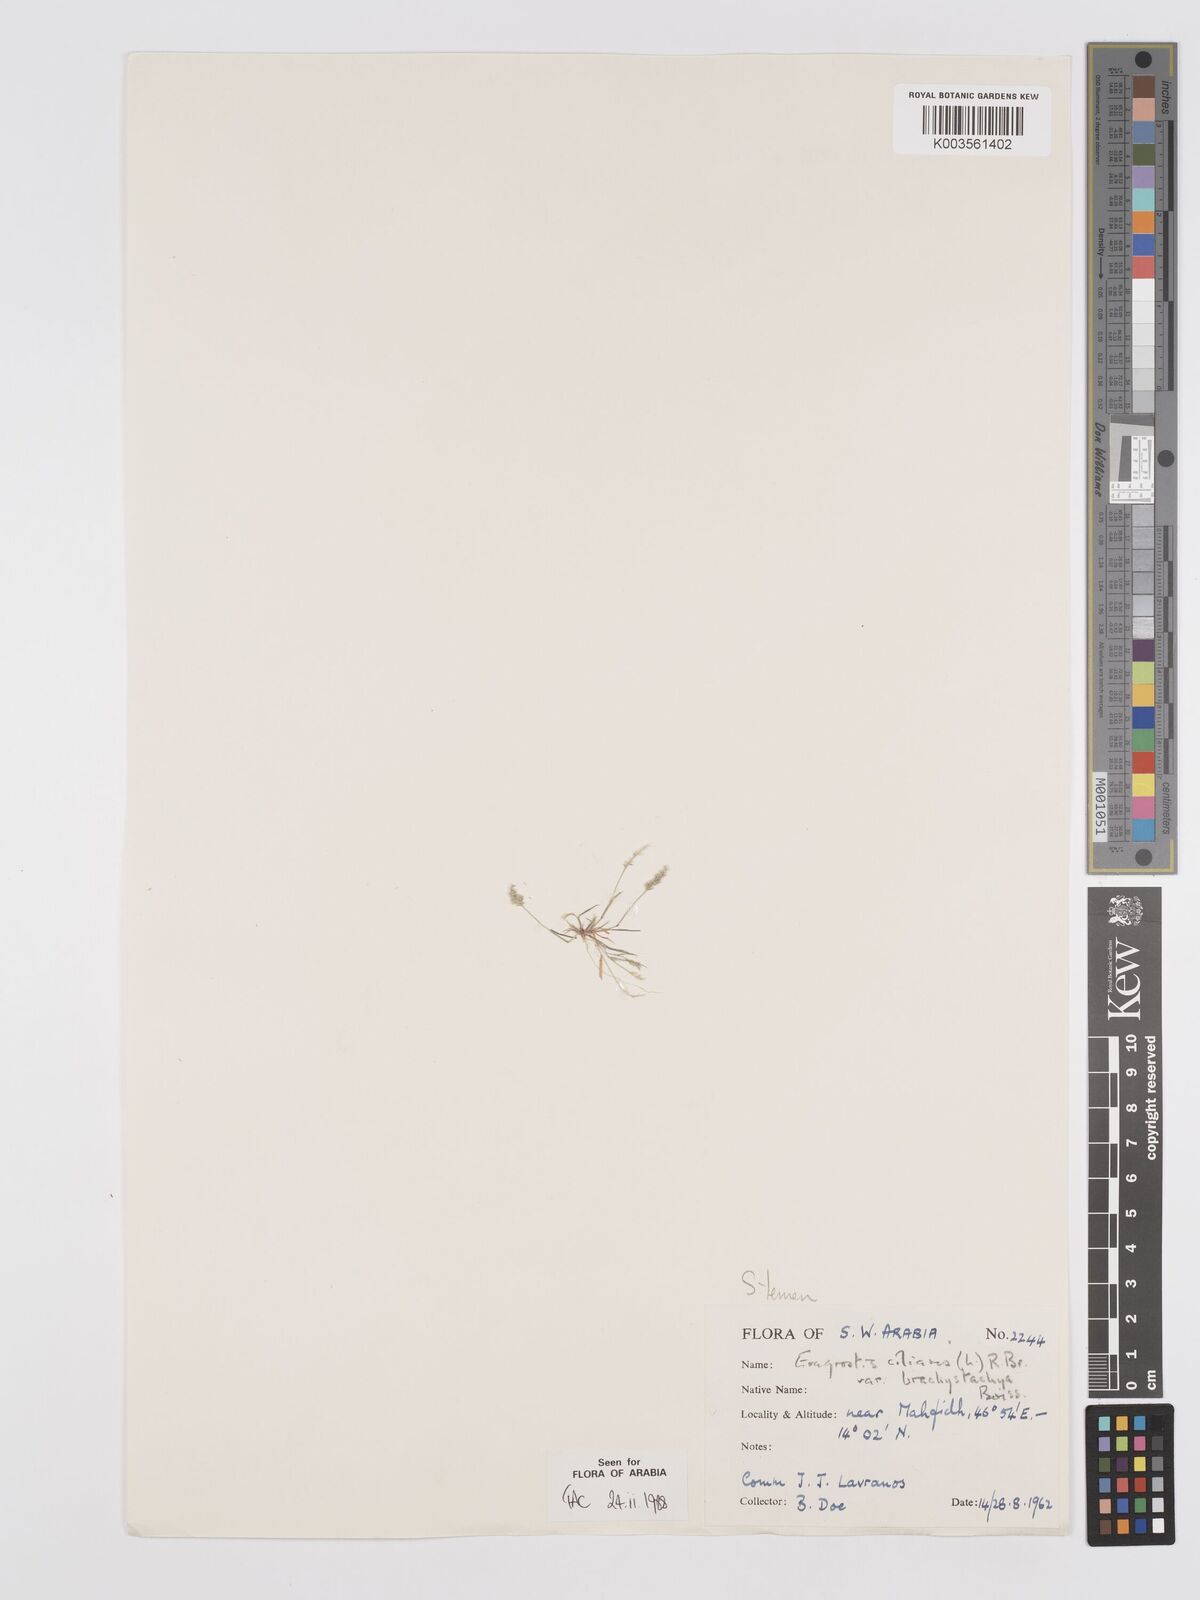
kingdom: Plantae
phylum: Tracheophyta
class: Liliopsida
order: Poales
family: Poaceae
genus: Eragrostis
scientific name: Eragrostis ciliaris
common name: Gophertail lovegrass
